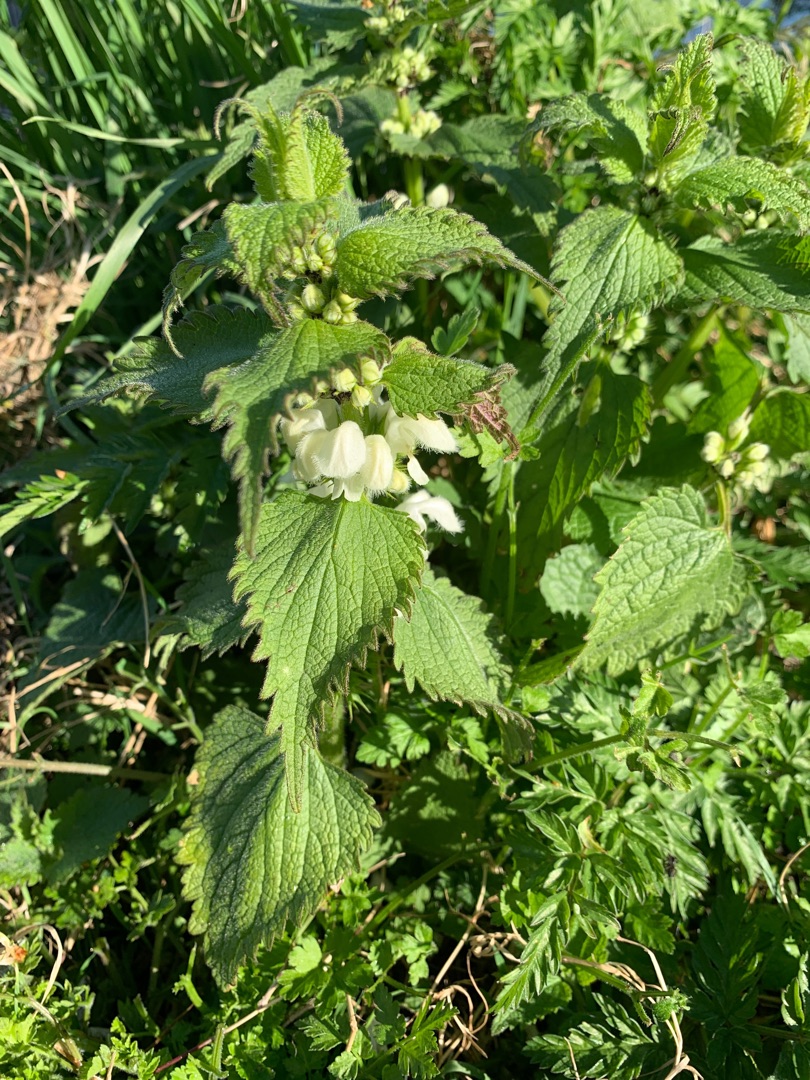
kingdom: Plantae
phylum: Tracheophyta
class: Magnoliopsida
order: Lamiales
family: Lamiaceae
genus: Lamium
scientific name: Lamium album
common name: Døvnælde
